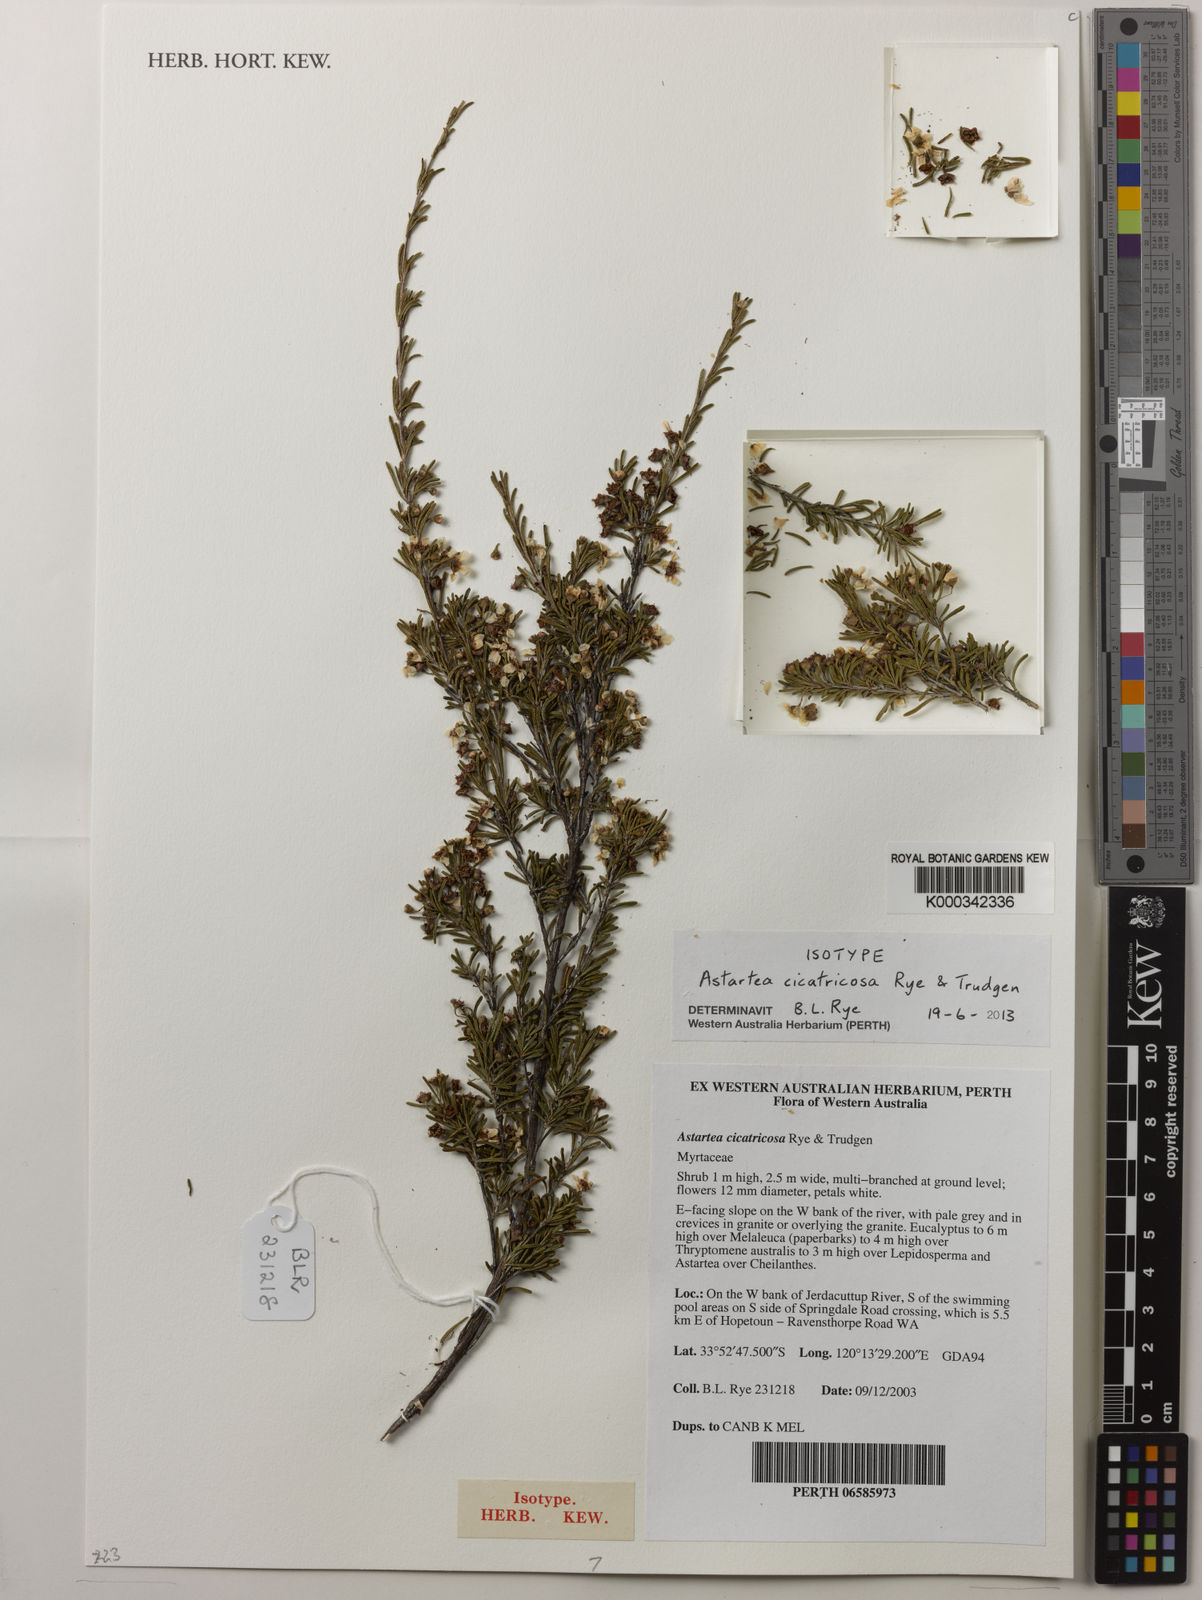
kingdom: Plantae
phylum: Tracheophyta
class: Magnoliopsida
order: Myrtales
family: Myrtaceae
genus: Astartea
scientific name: Astartea cicatricosa
